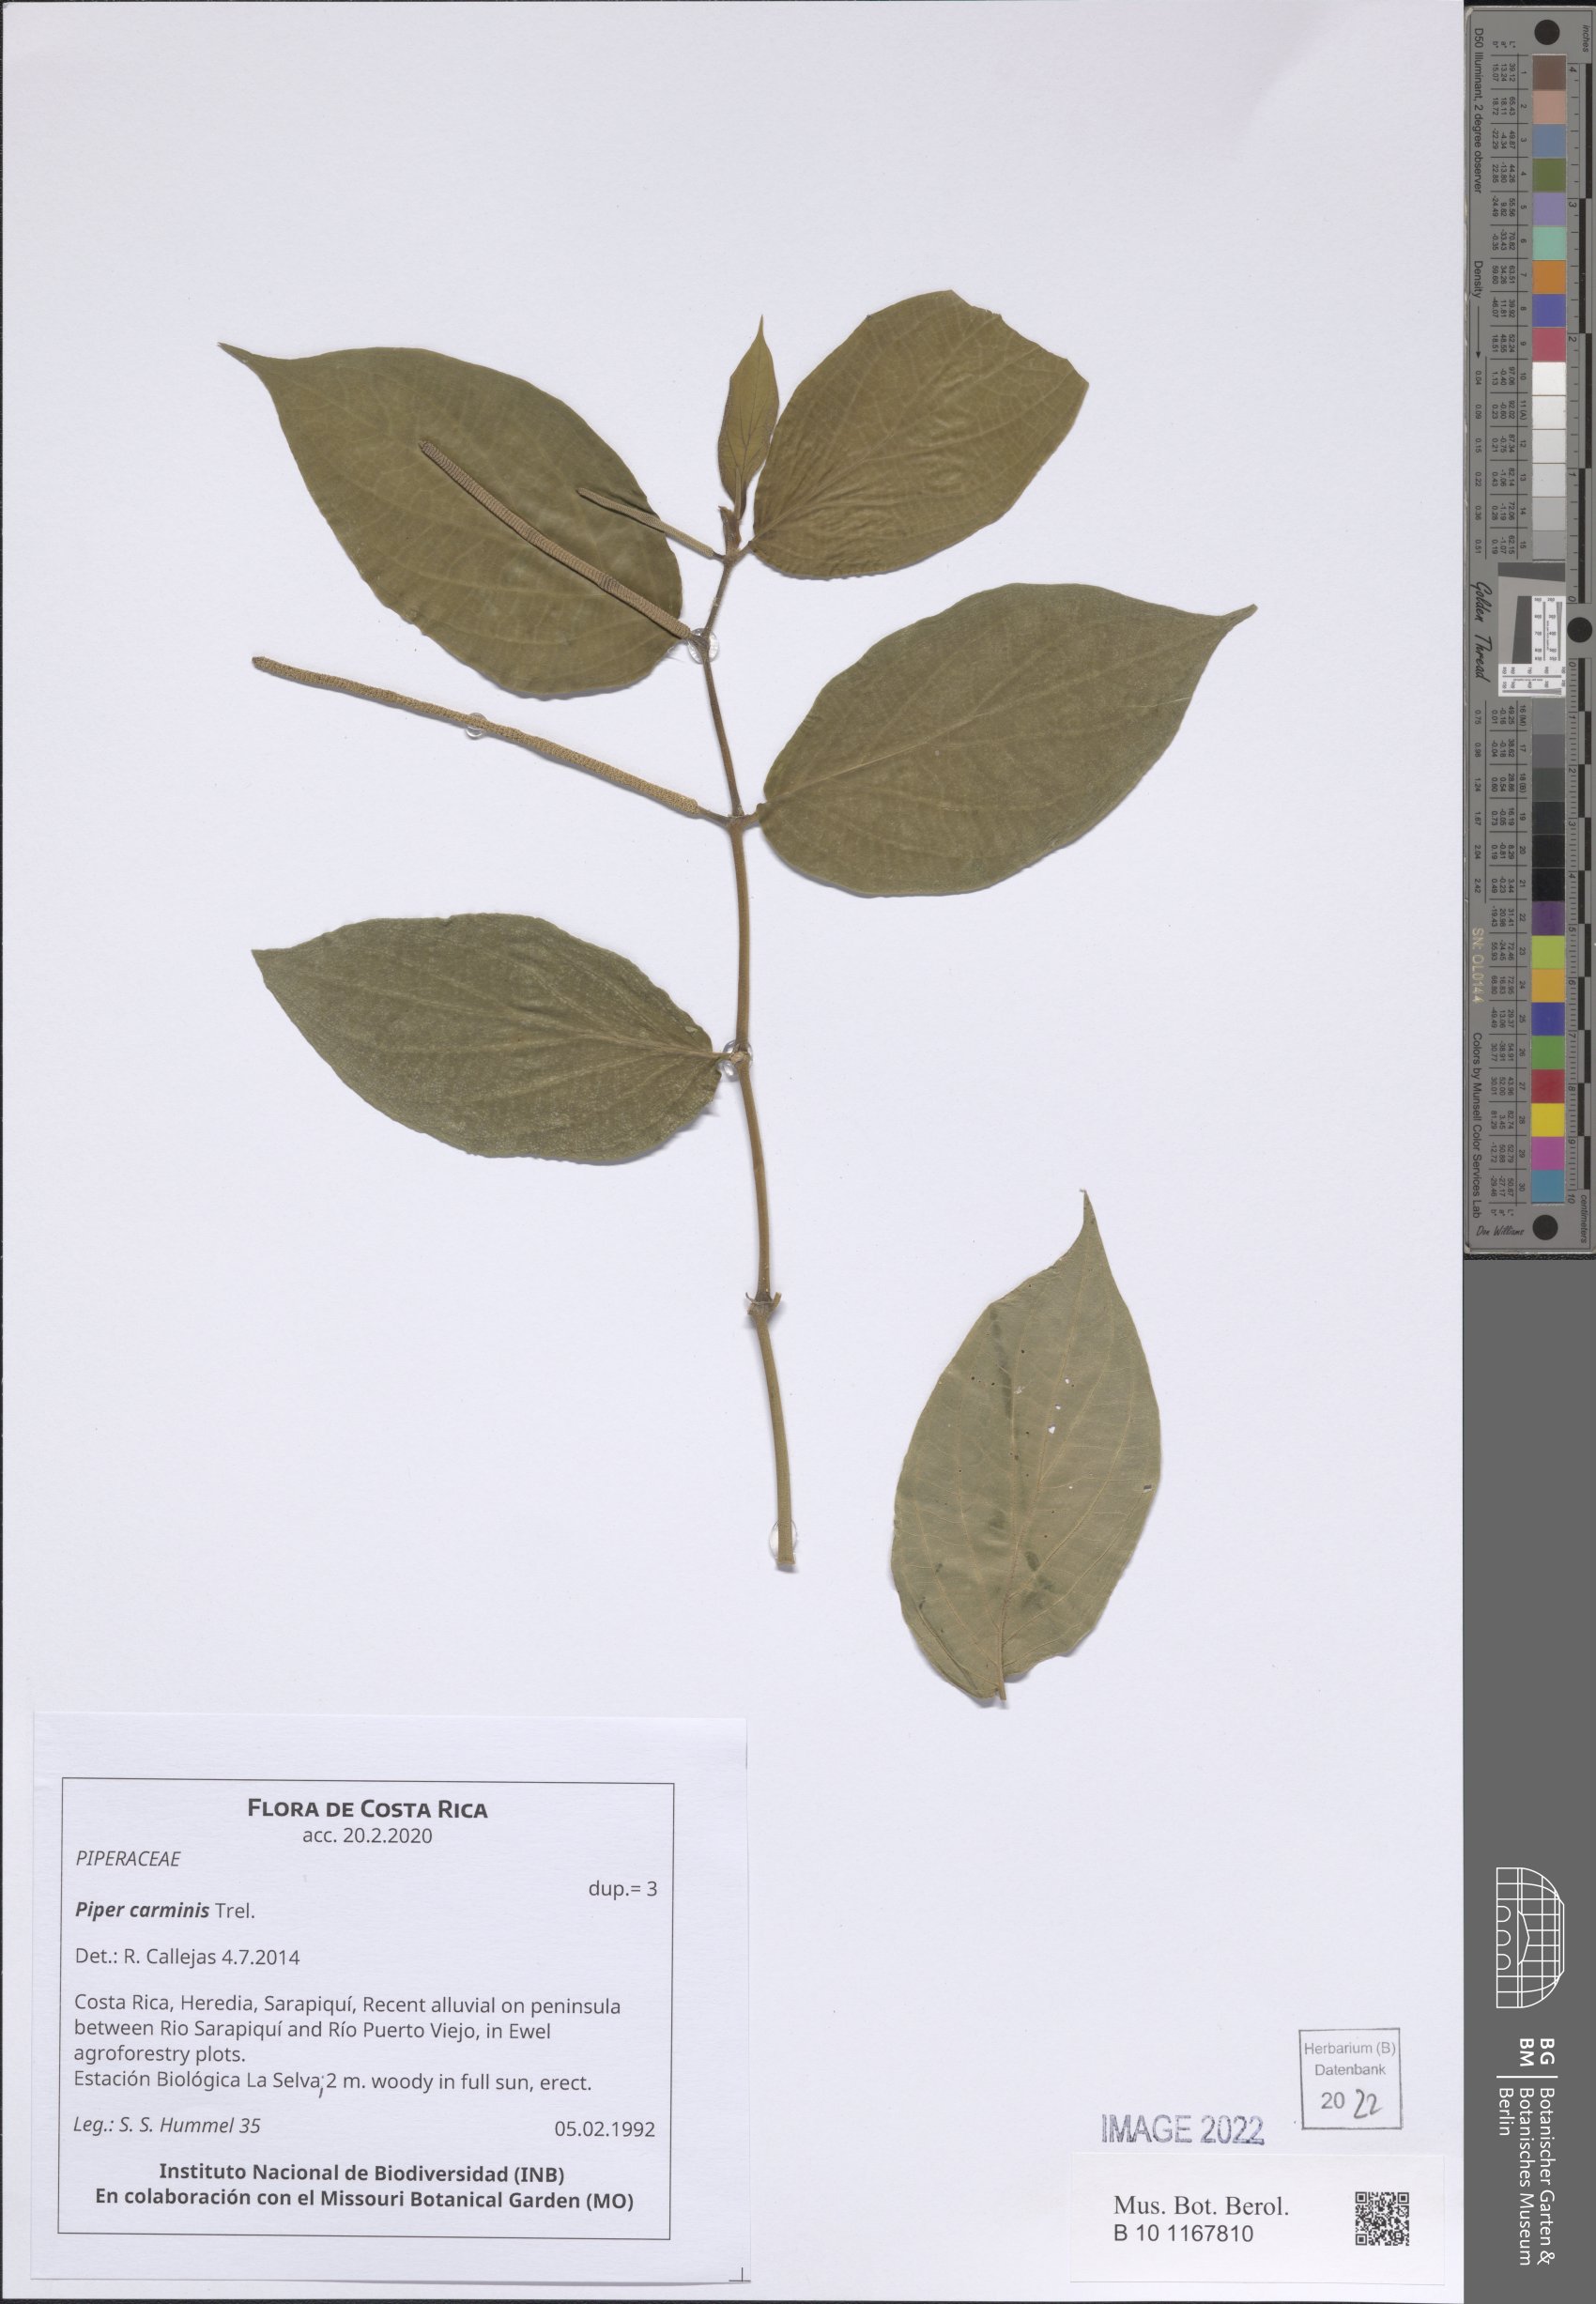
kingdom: Plantae
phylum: Tracheophyta
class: Magnoliopsida
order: Piperales
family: Piperaceae
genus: Piper
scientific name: Piper carminis
